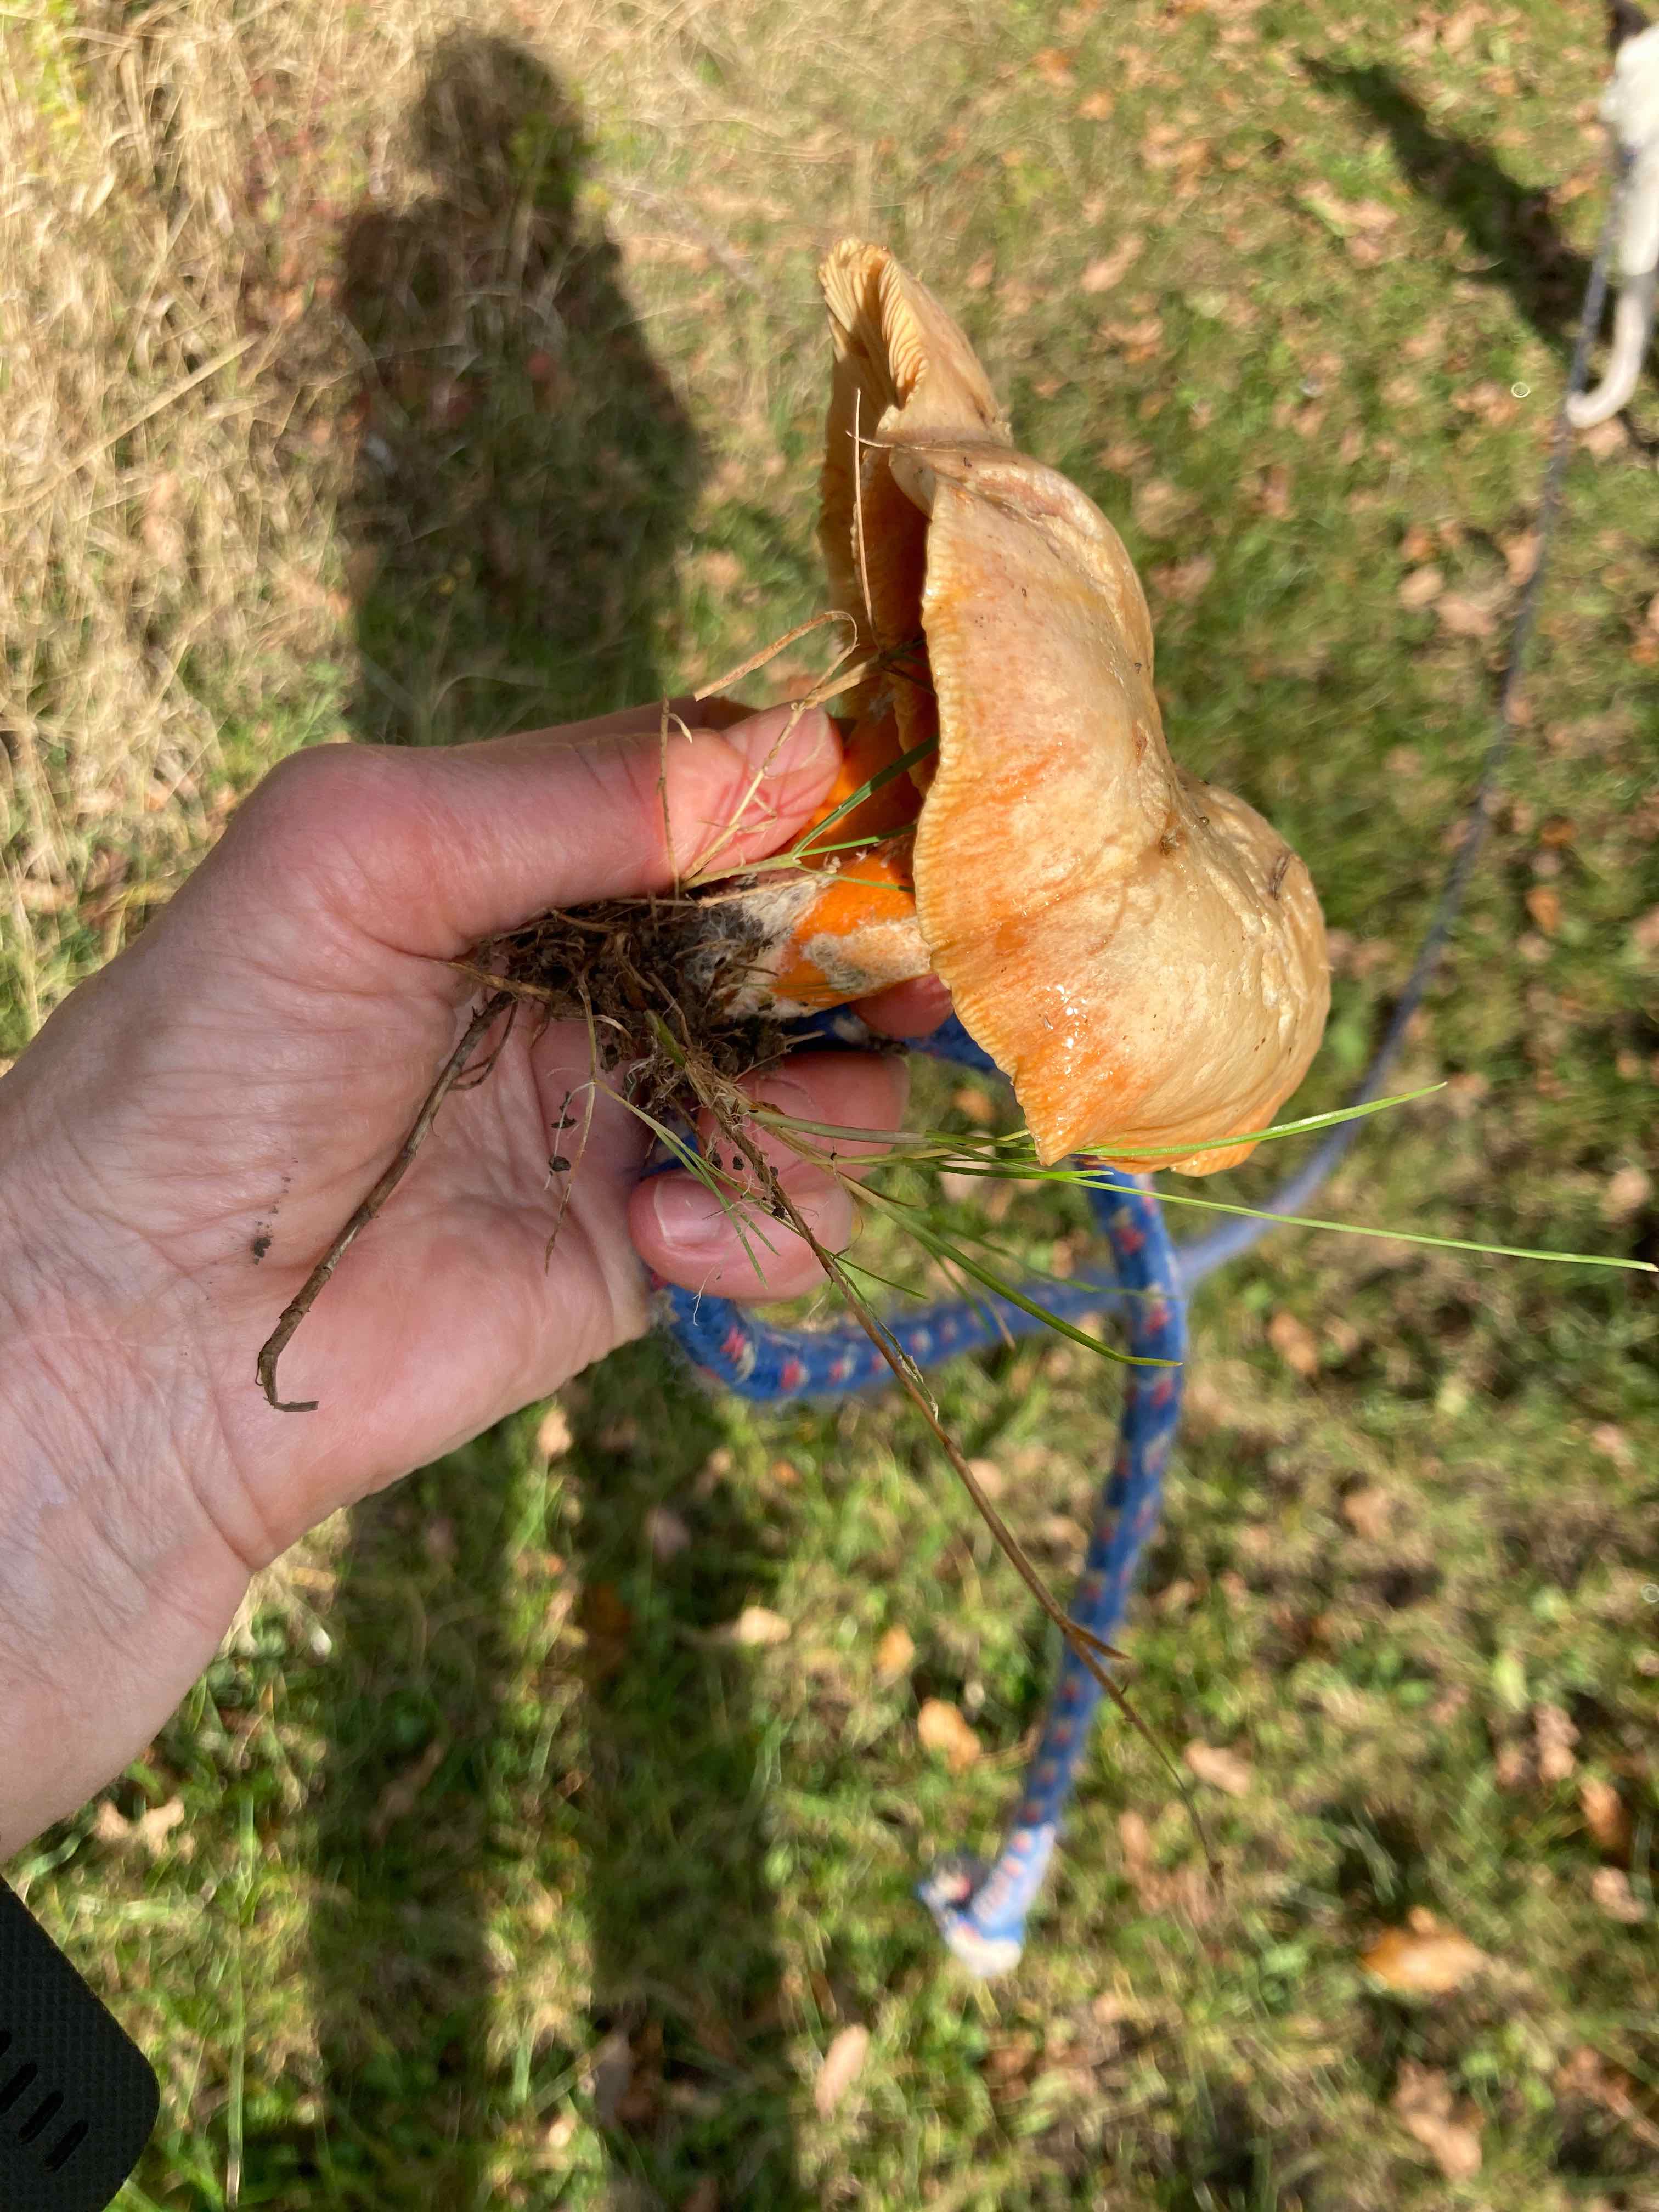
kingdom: Fungi
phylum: Basidiomycota
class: Agaricomycetes
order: Russulales
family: Russulaceae
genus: Lactarius
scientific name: Lactarius deterrimus
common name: gran-mælkehat
